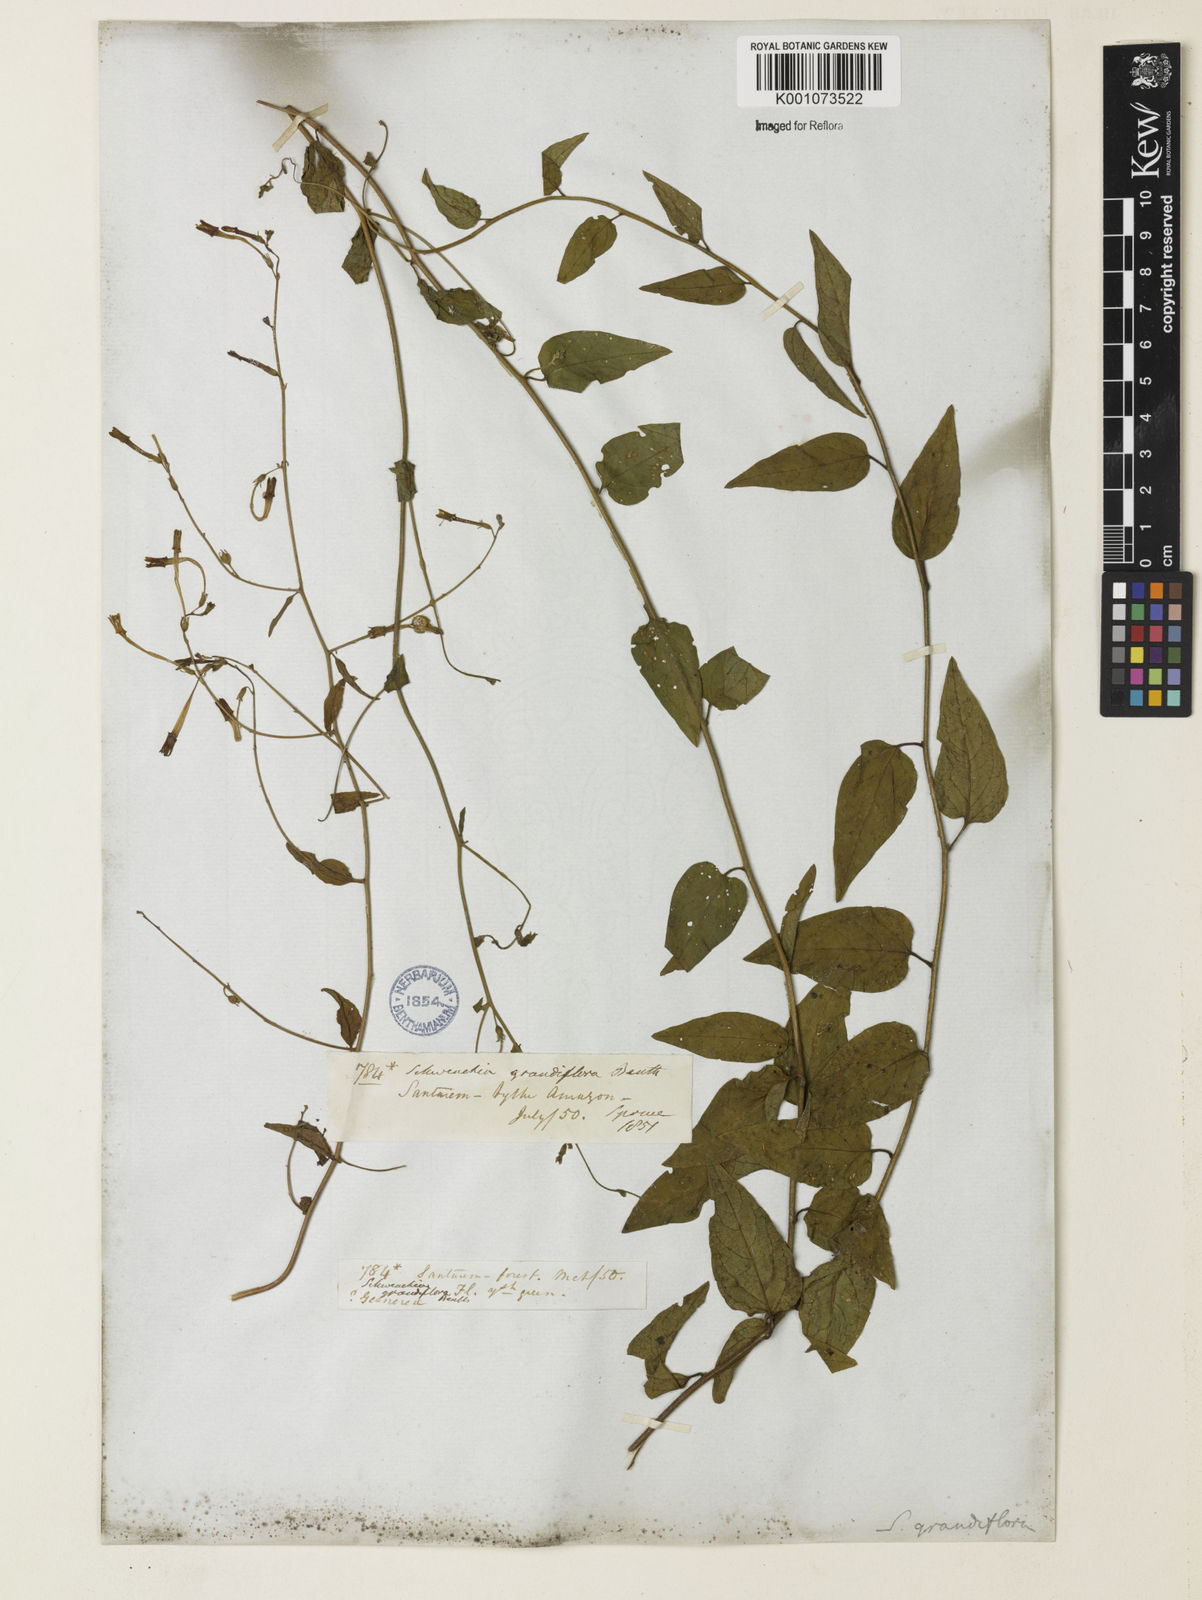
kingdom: Plantae
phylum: Tracheophyta
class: Magnoliopsida
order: Solanales
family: Solanaceae
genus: Schwenckia
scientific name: Schwenckia grandiflora
